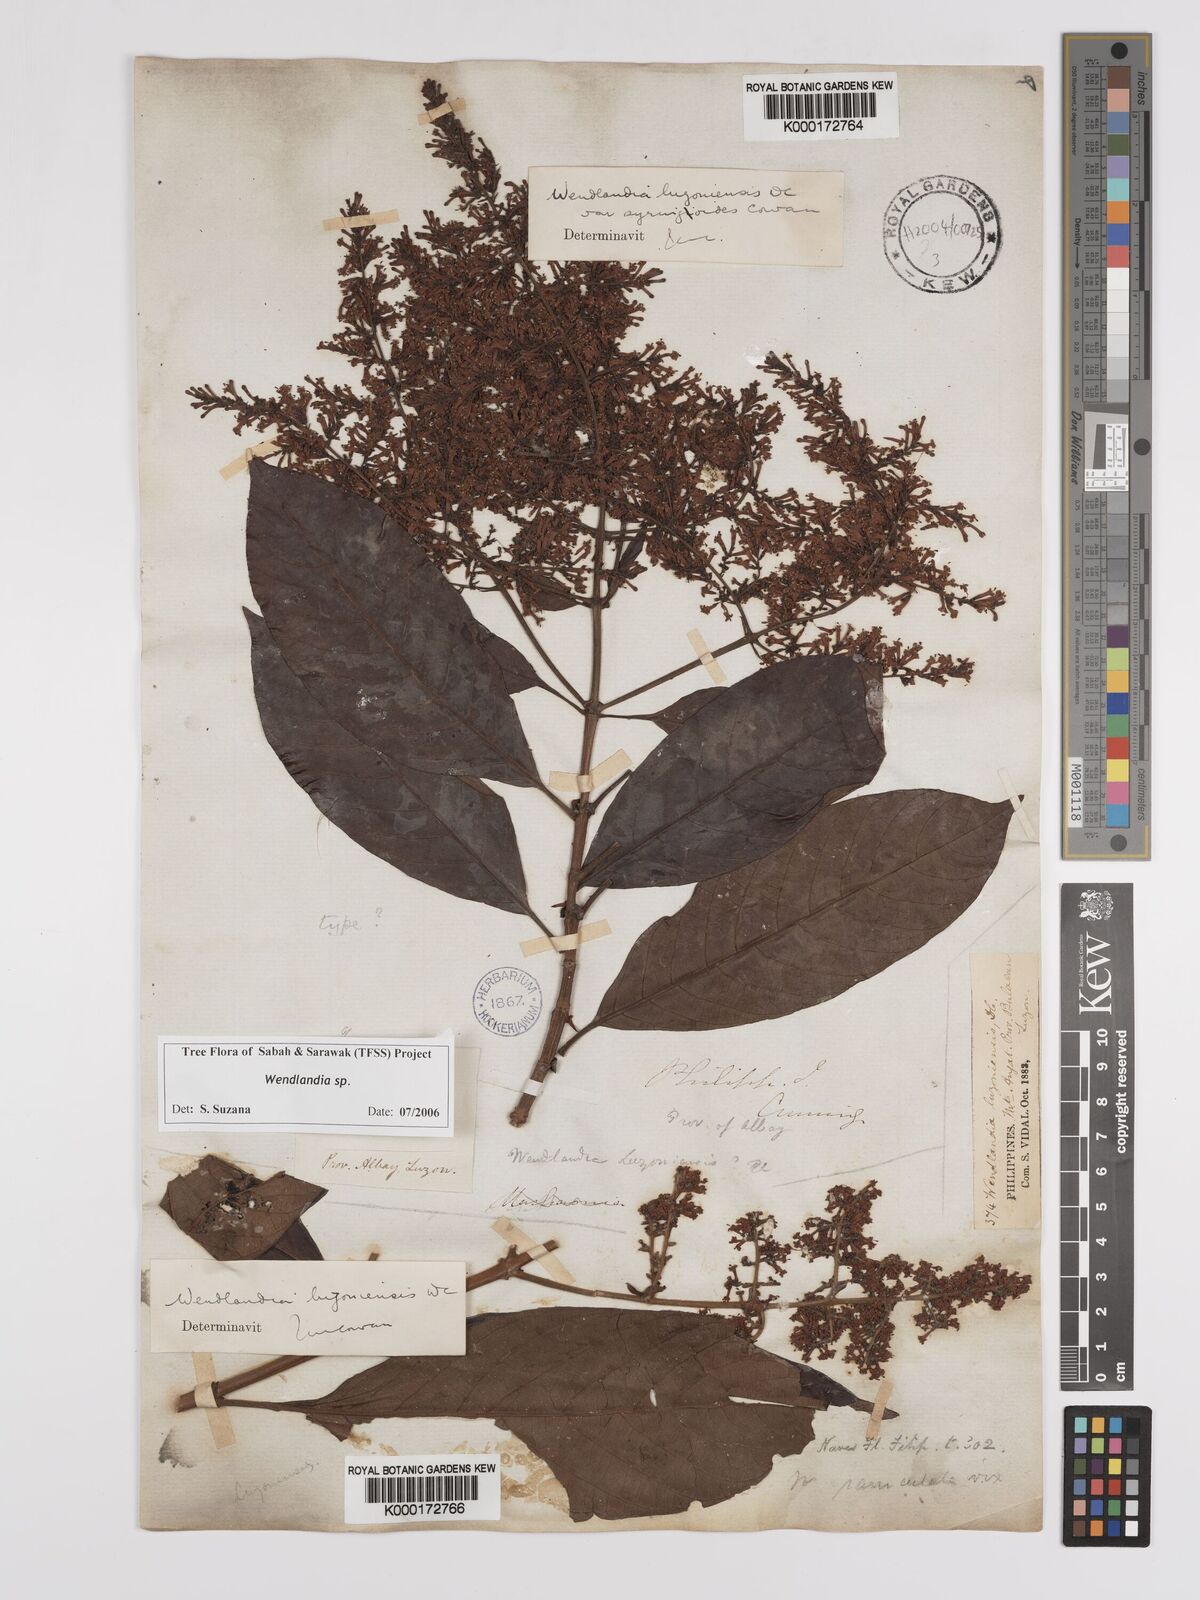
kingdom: Plantae
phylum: Tracheophyta
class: Magnoliopsida
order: Gentianales
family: Rubiaceae
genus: Wendlandia
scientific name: Wendlandia luzoniensis
